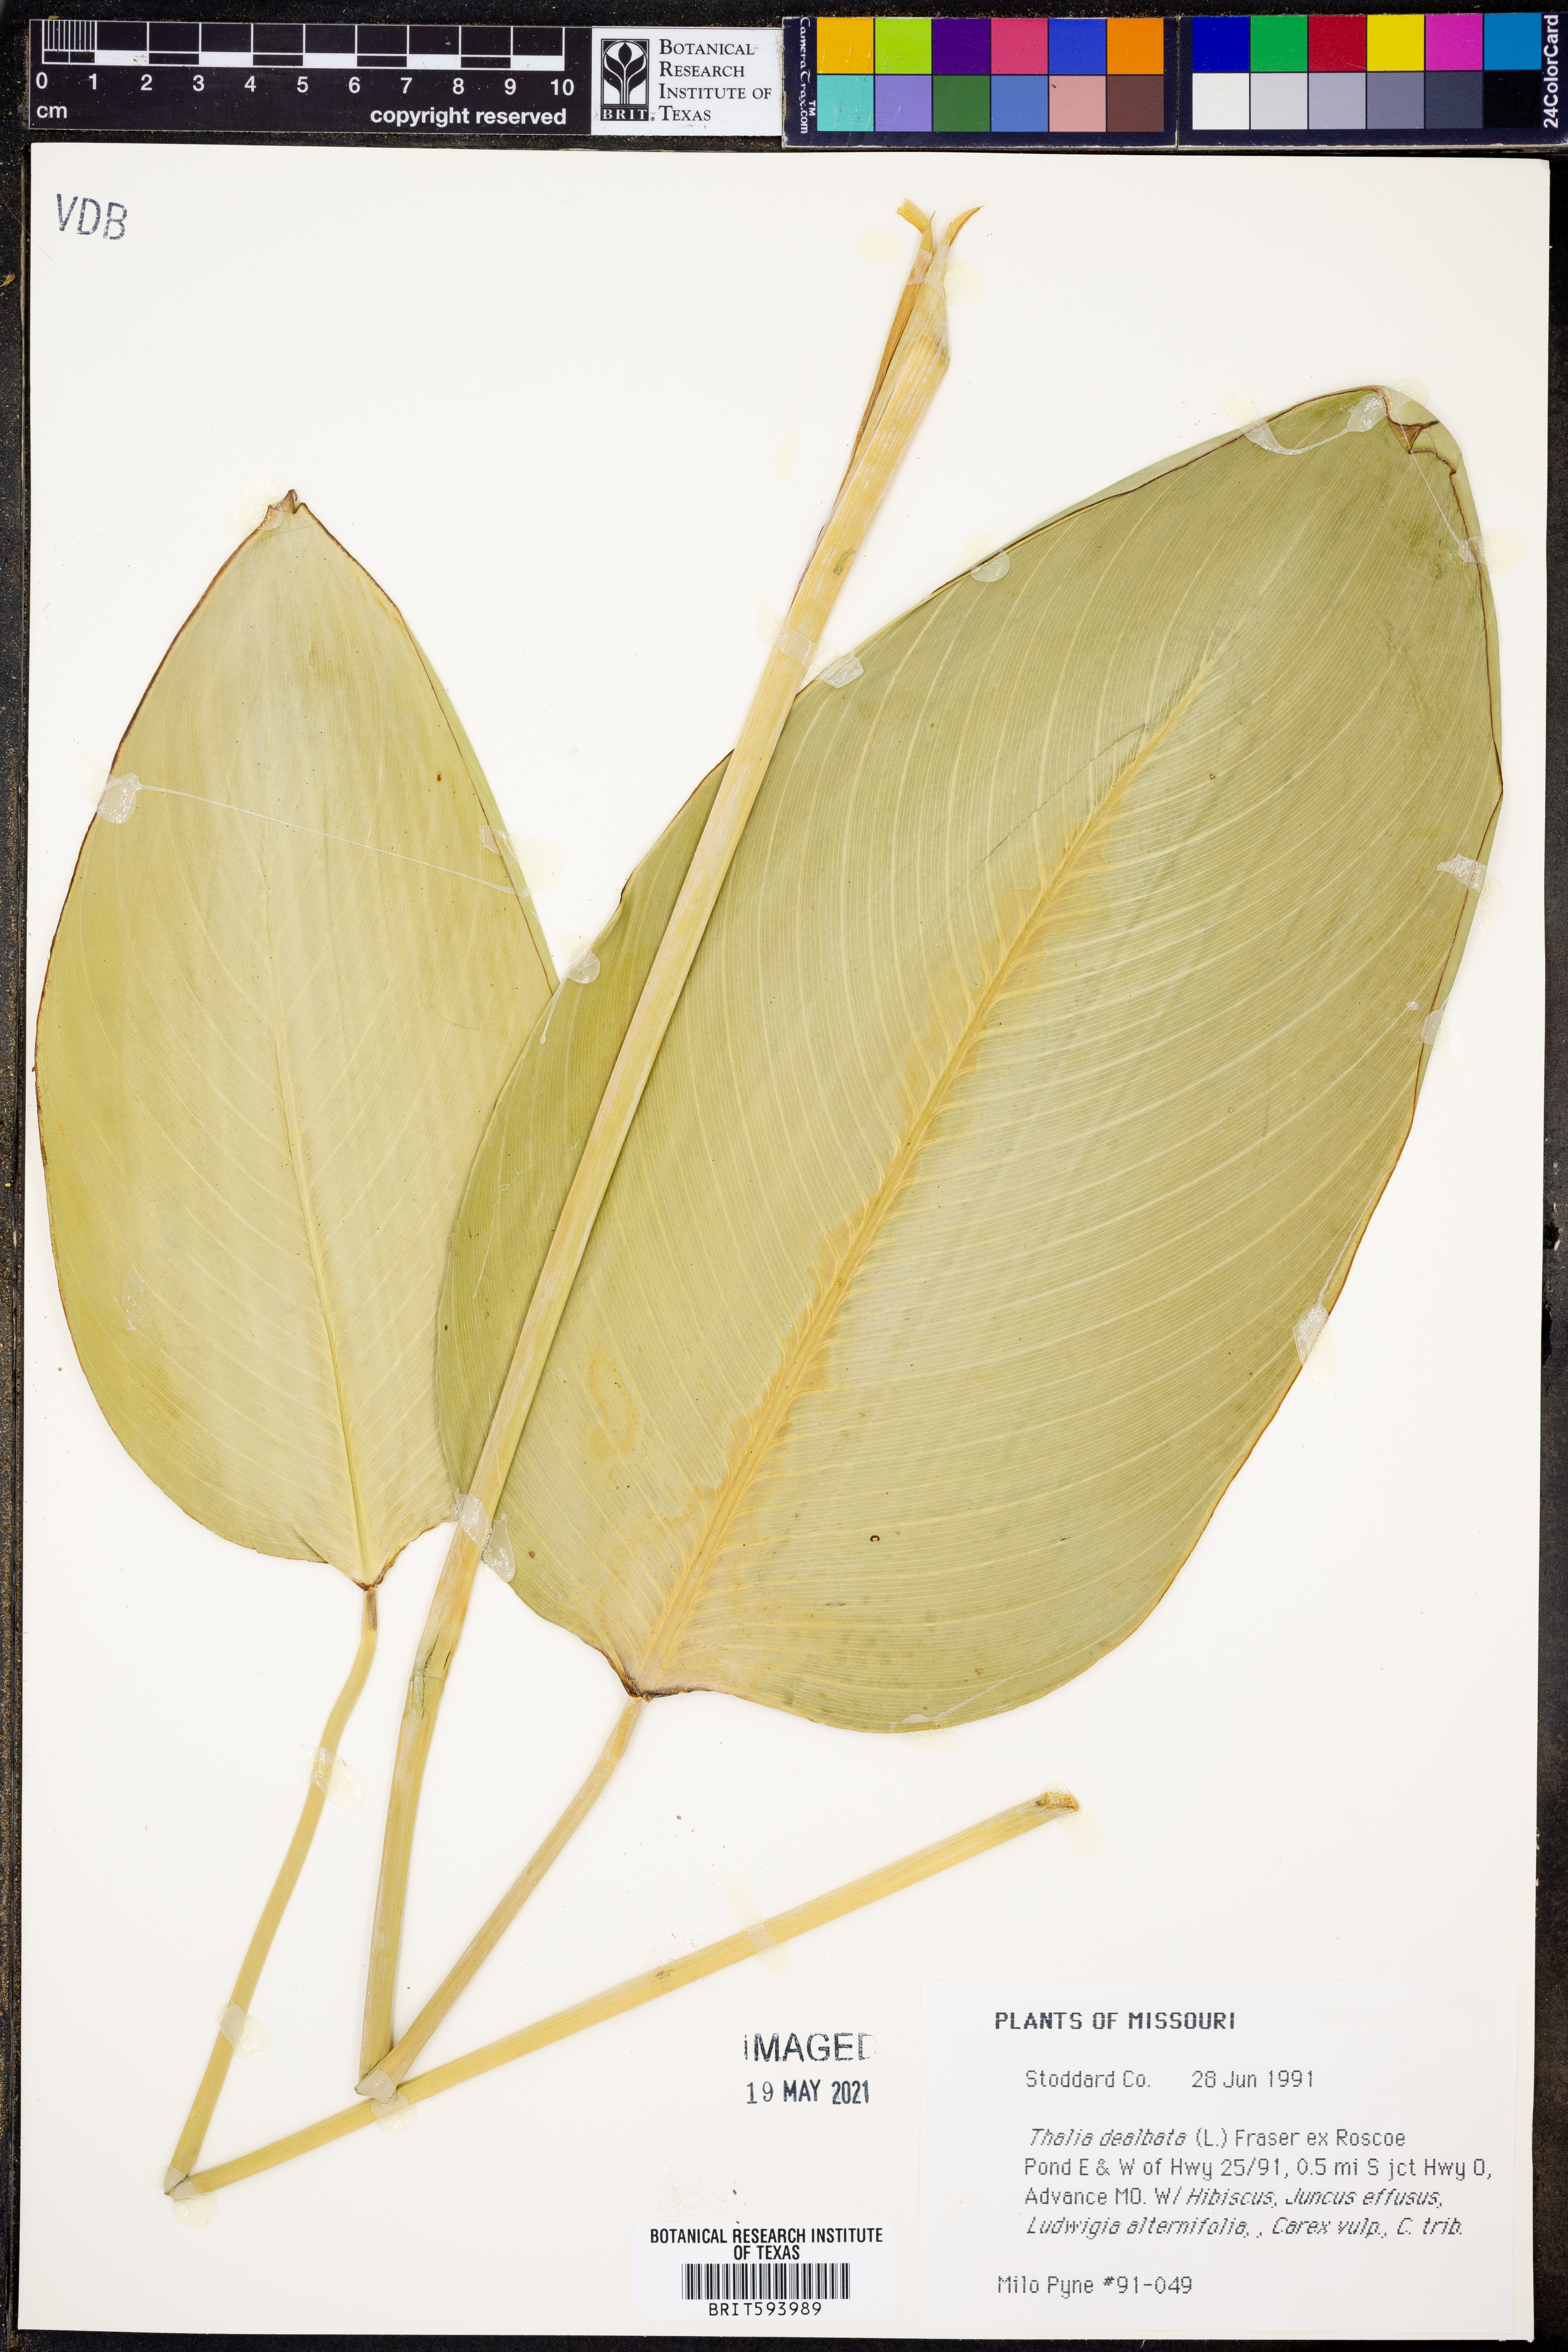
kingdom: Plantae
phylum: Tracheophyta
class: Liliopsida
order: Zingiberales
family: Marantaceae
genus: Thalia
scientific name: Thalia dealbata
